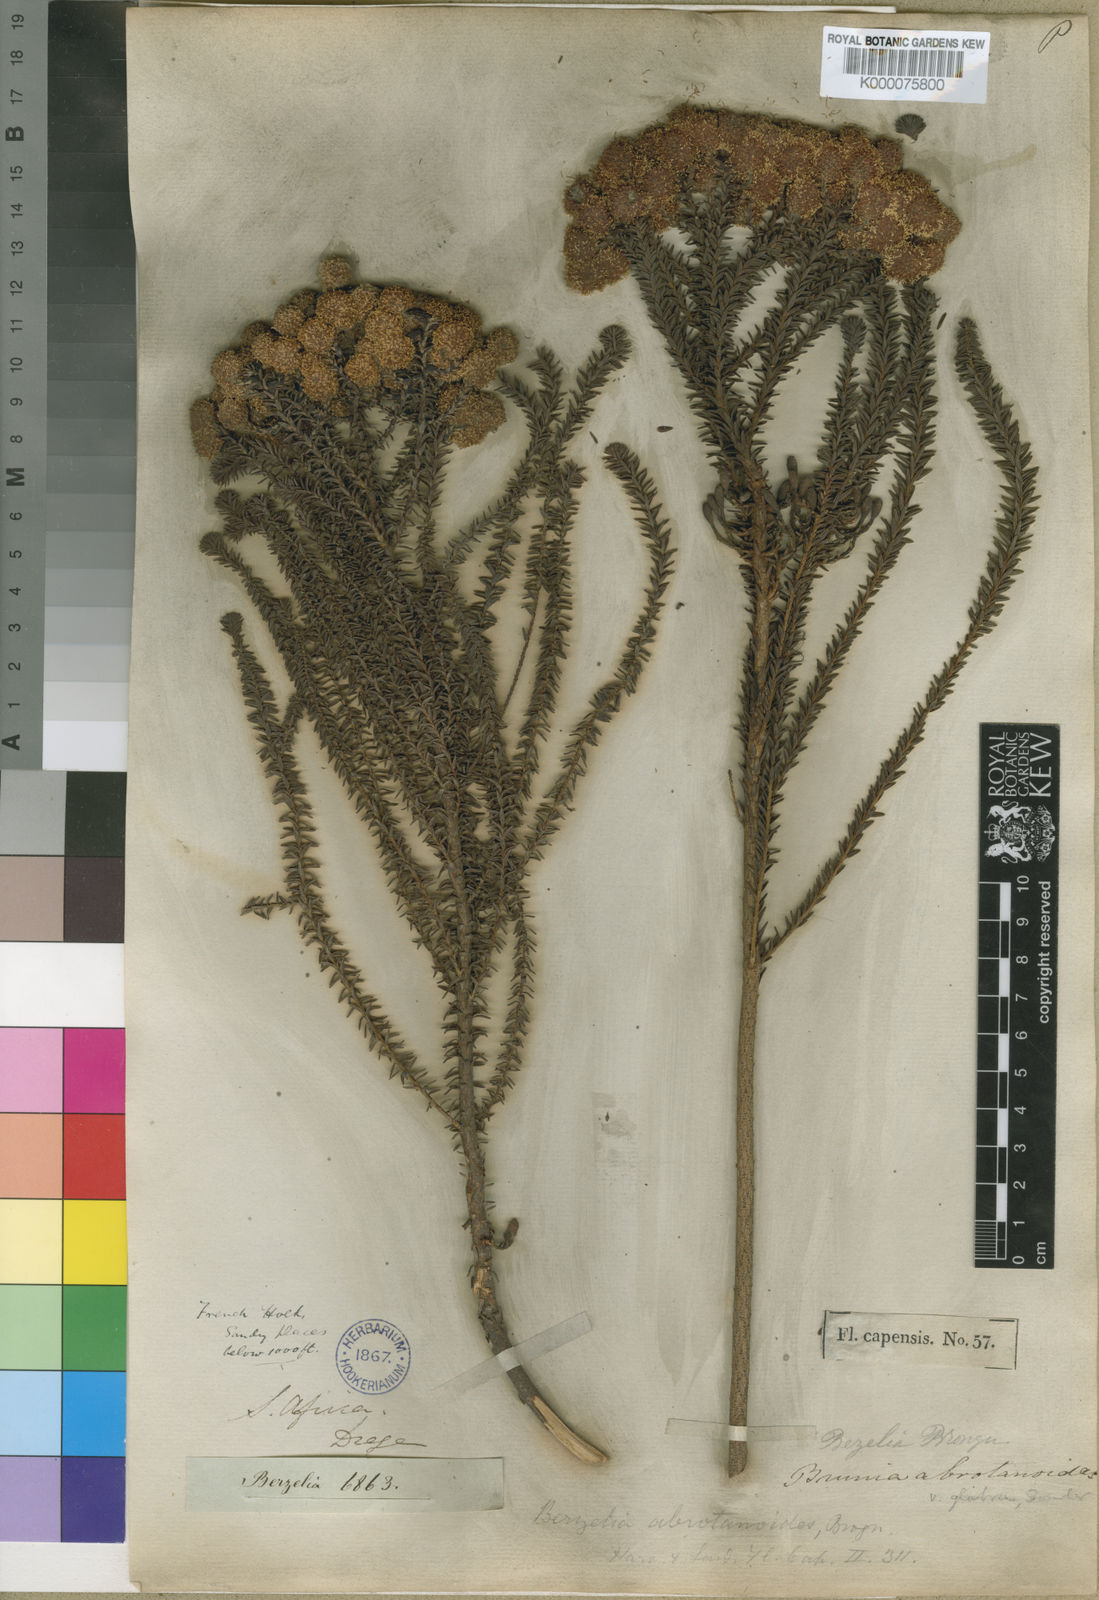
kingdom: Plantae
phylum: Tracheophyta
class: Magnoliopsida
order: Bruniales
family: Bruniaceae
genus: Berzelia
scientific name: Berzelia abrotanoides
